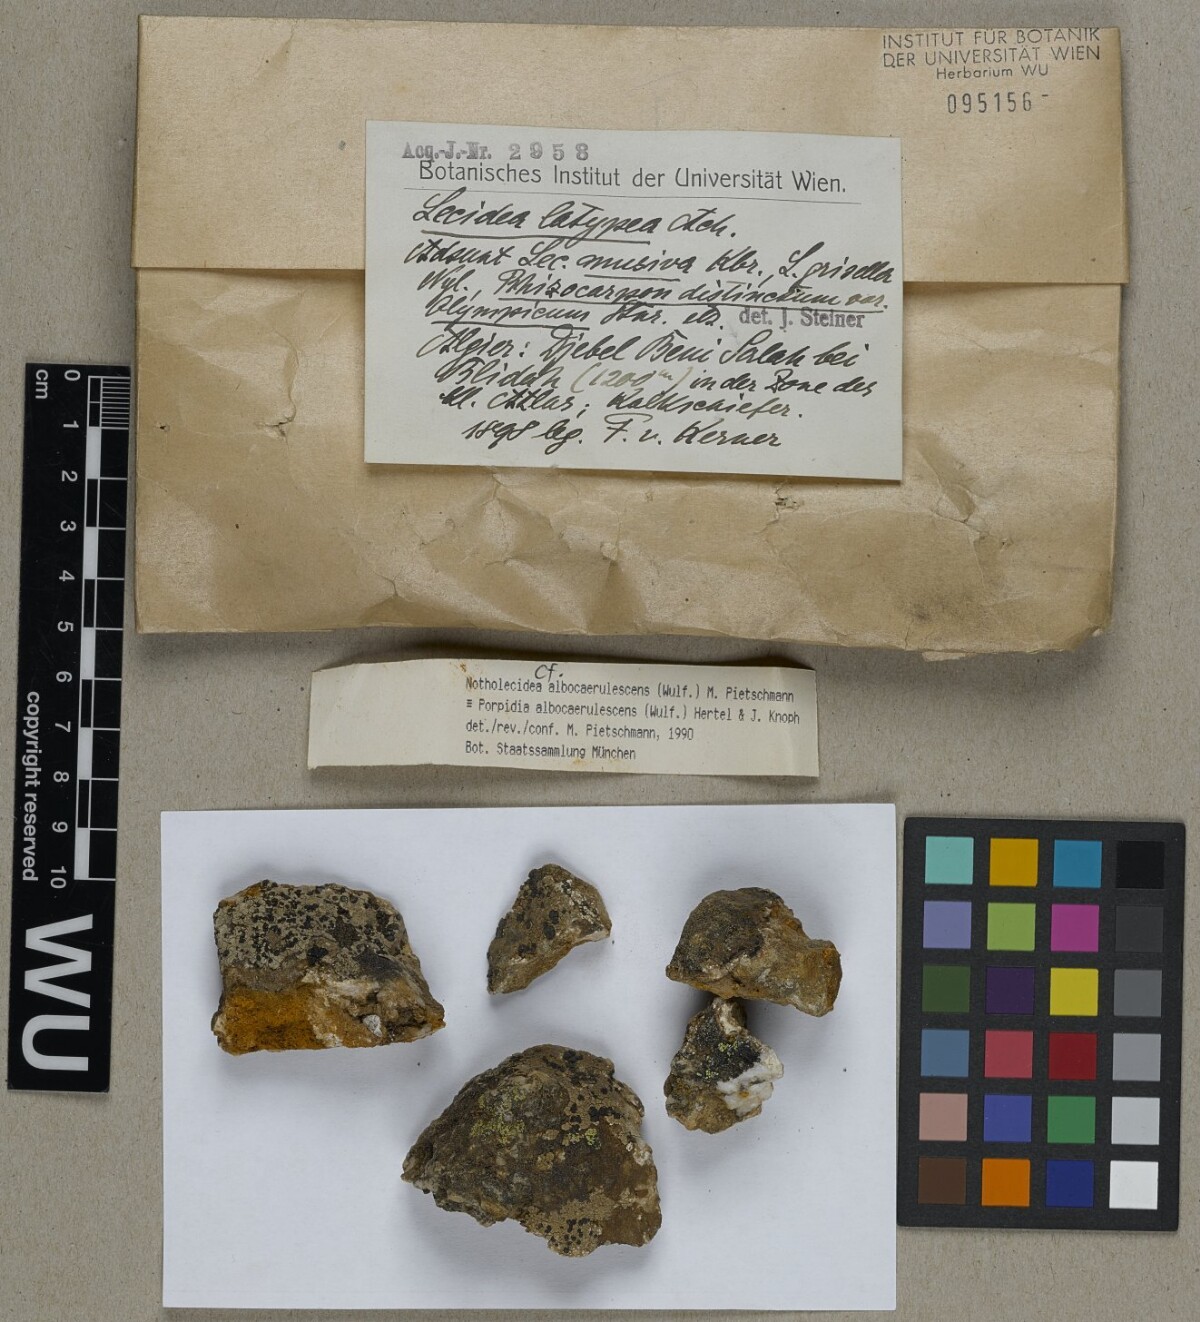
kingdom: Fungi
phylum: Ascomycota
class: Lecanoromycetes
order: Lecideales
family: Lecideaceae
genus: Porpidia
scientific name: Porpidia albocaerulescens
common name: Smokey-eyed boulder lichen
